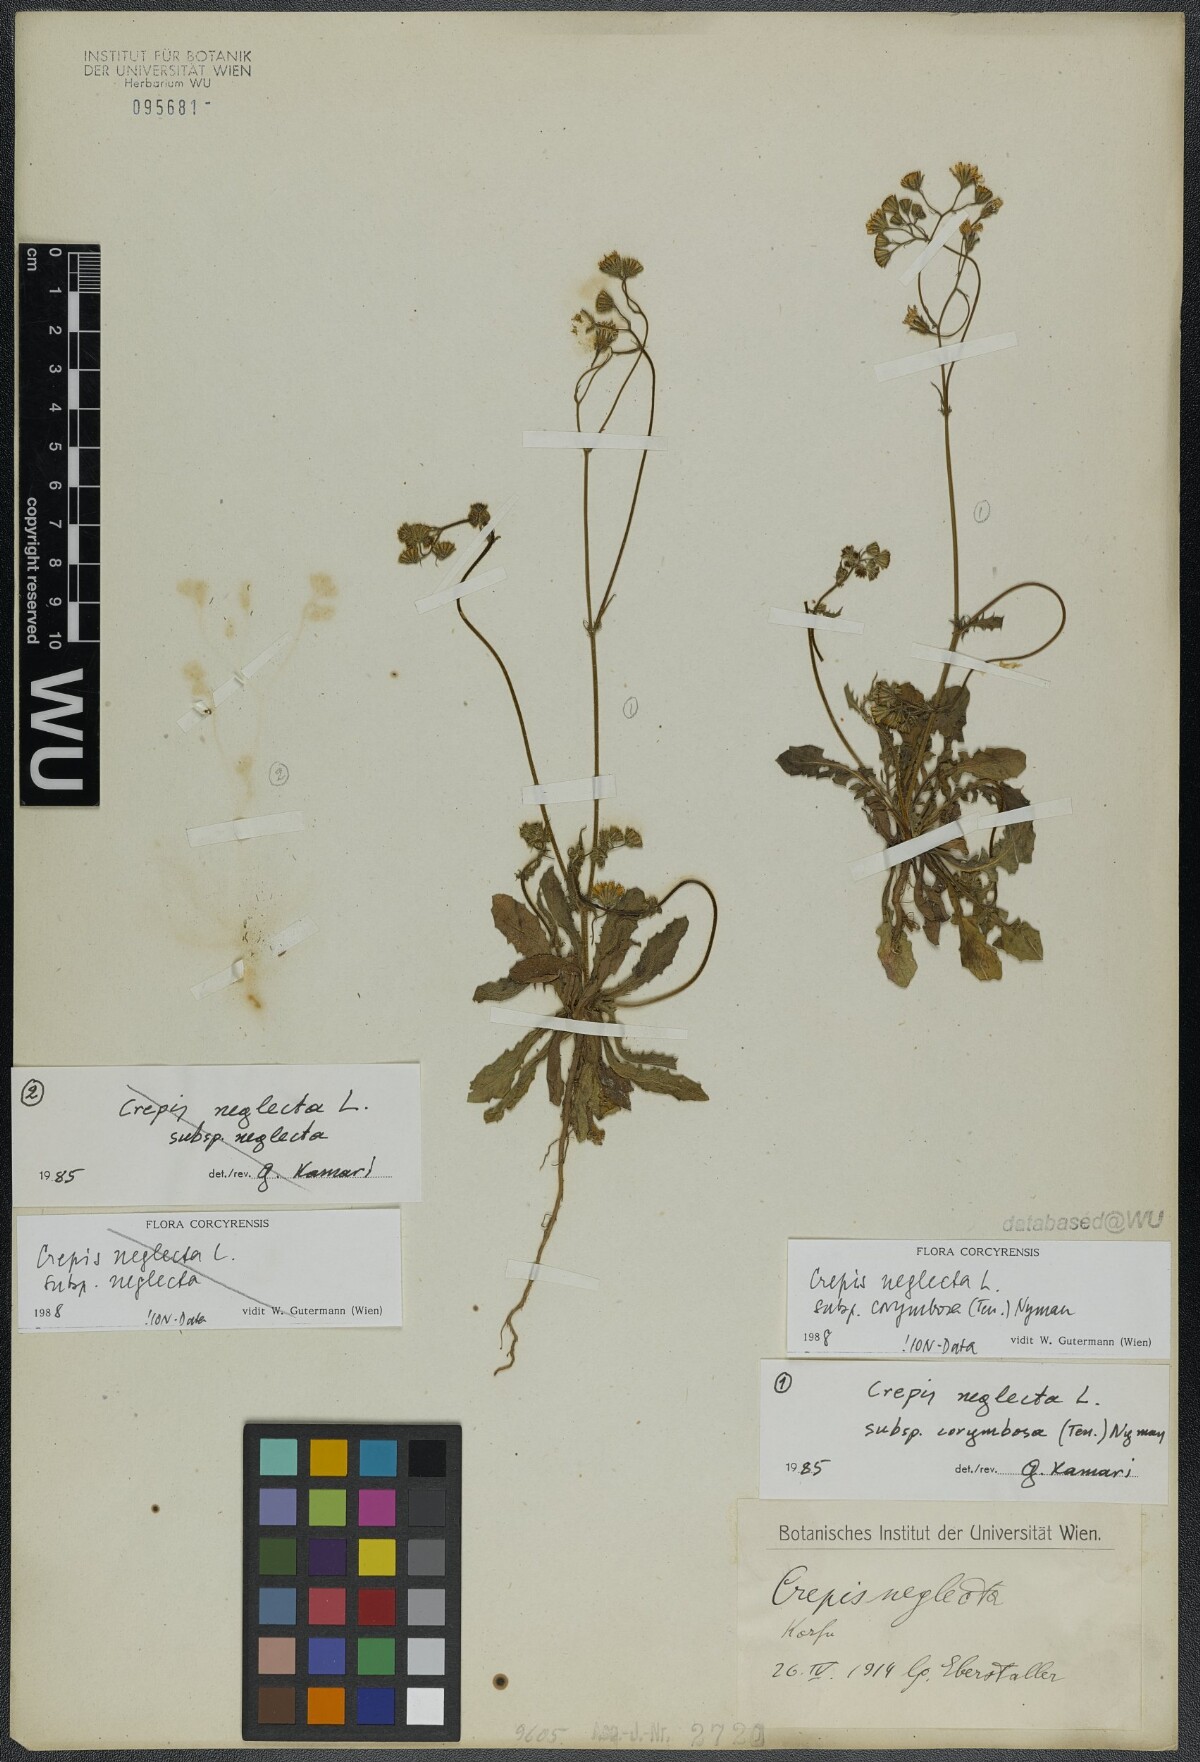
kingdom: Plantae
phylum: Tracheophyta
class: Magnoliopsida
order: Asterales
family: Asteraceae
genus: Crepis
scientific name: Crepis neglecta
